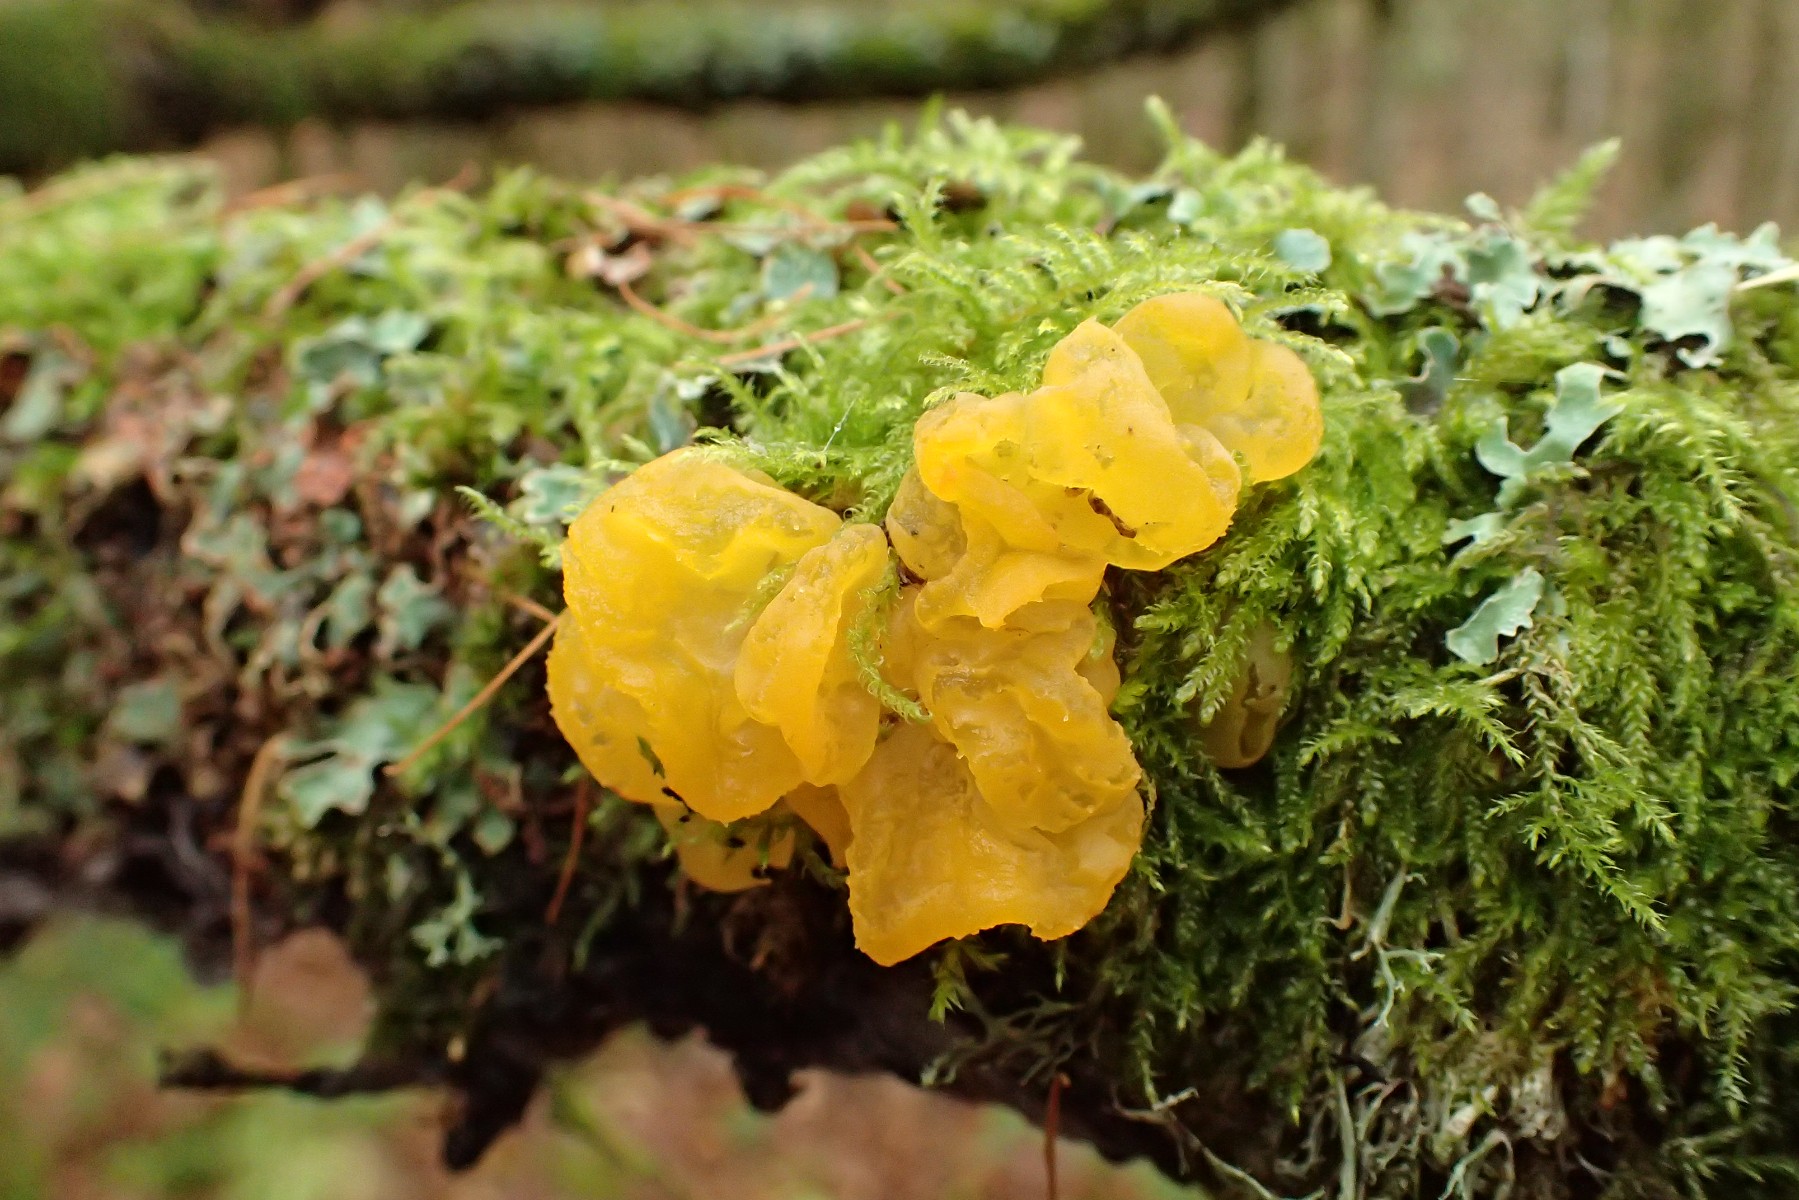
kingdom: Fungi
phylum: Basidiomycota
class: Tremellomycetes
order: Tremellales
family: Tremellaceae
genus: Tremella
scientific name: Tremella mesenterica
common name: gul bævresvamp
